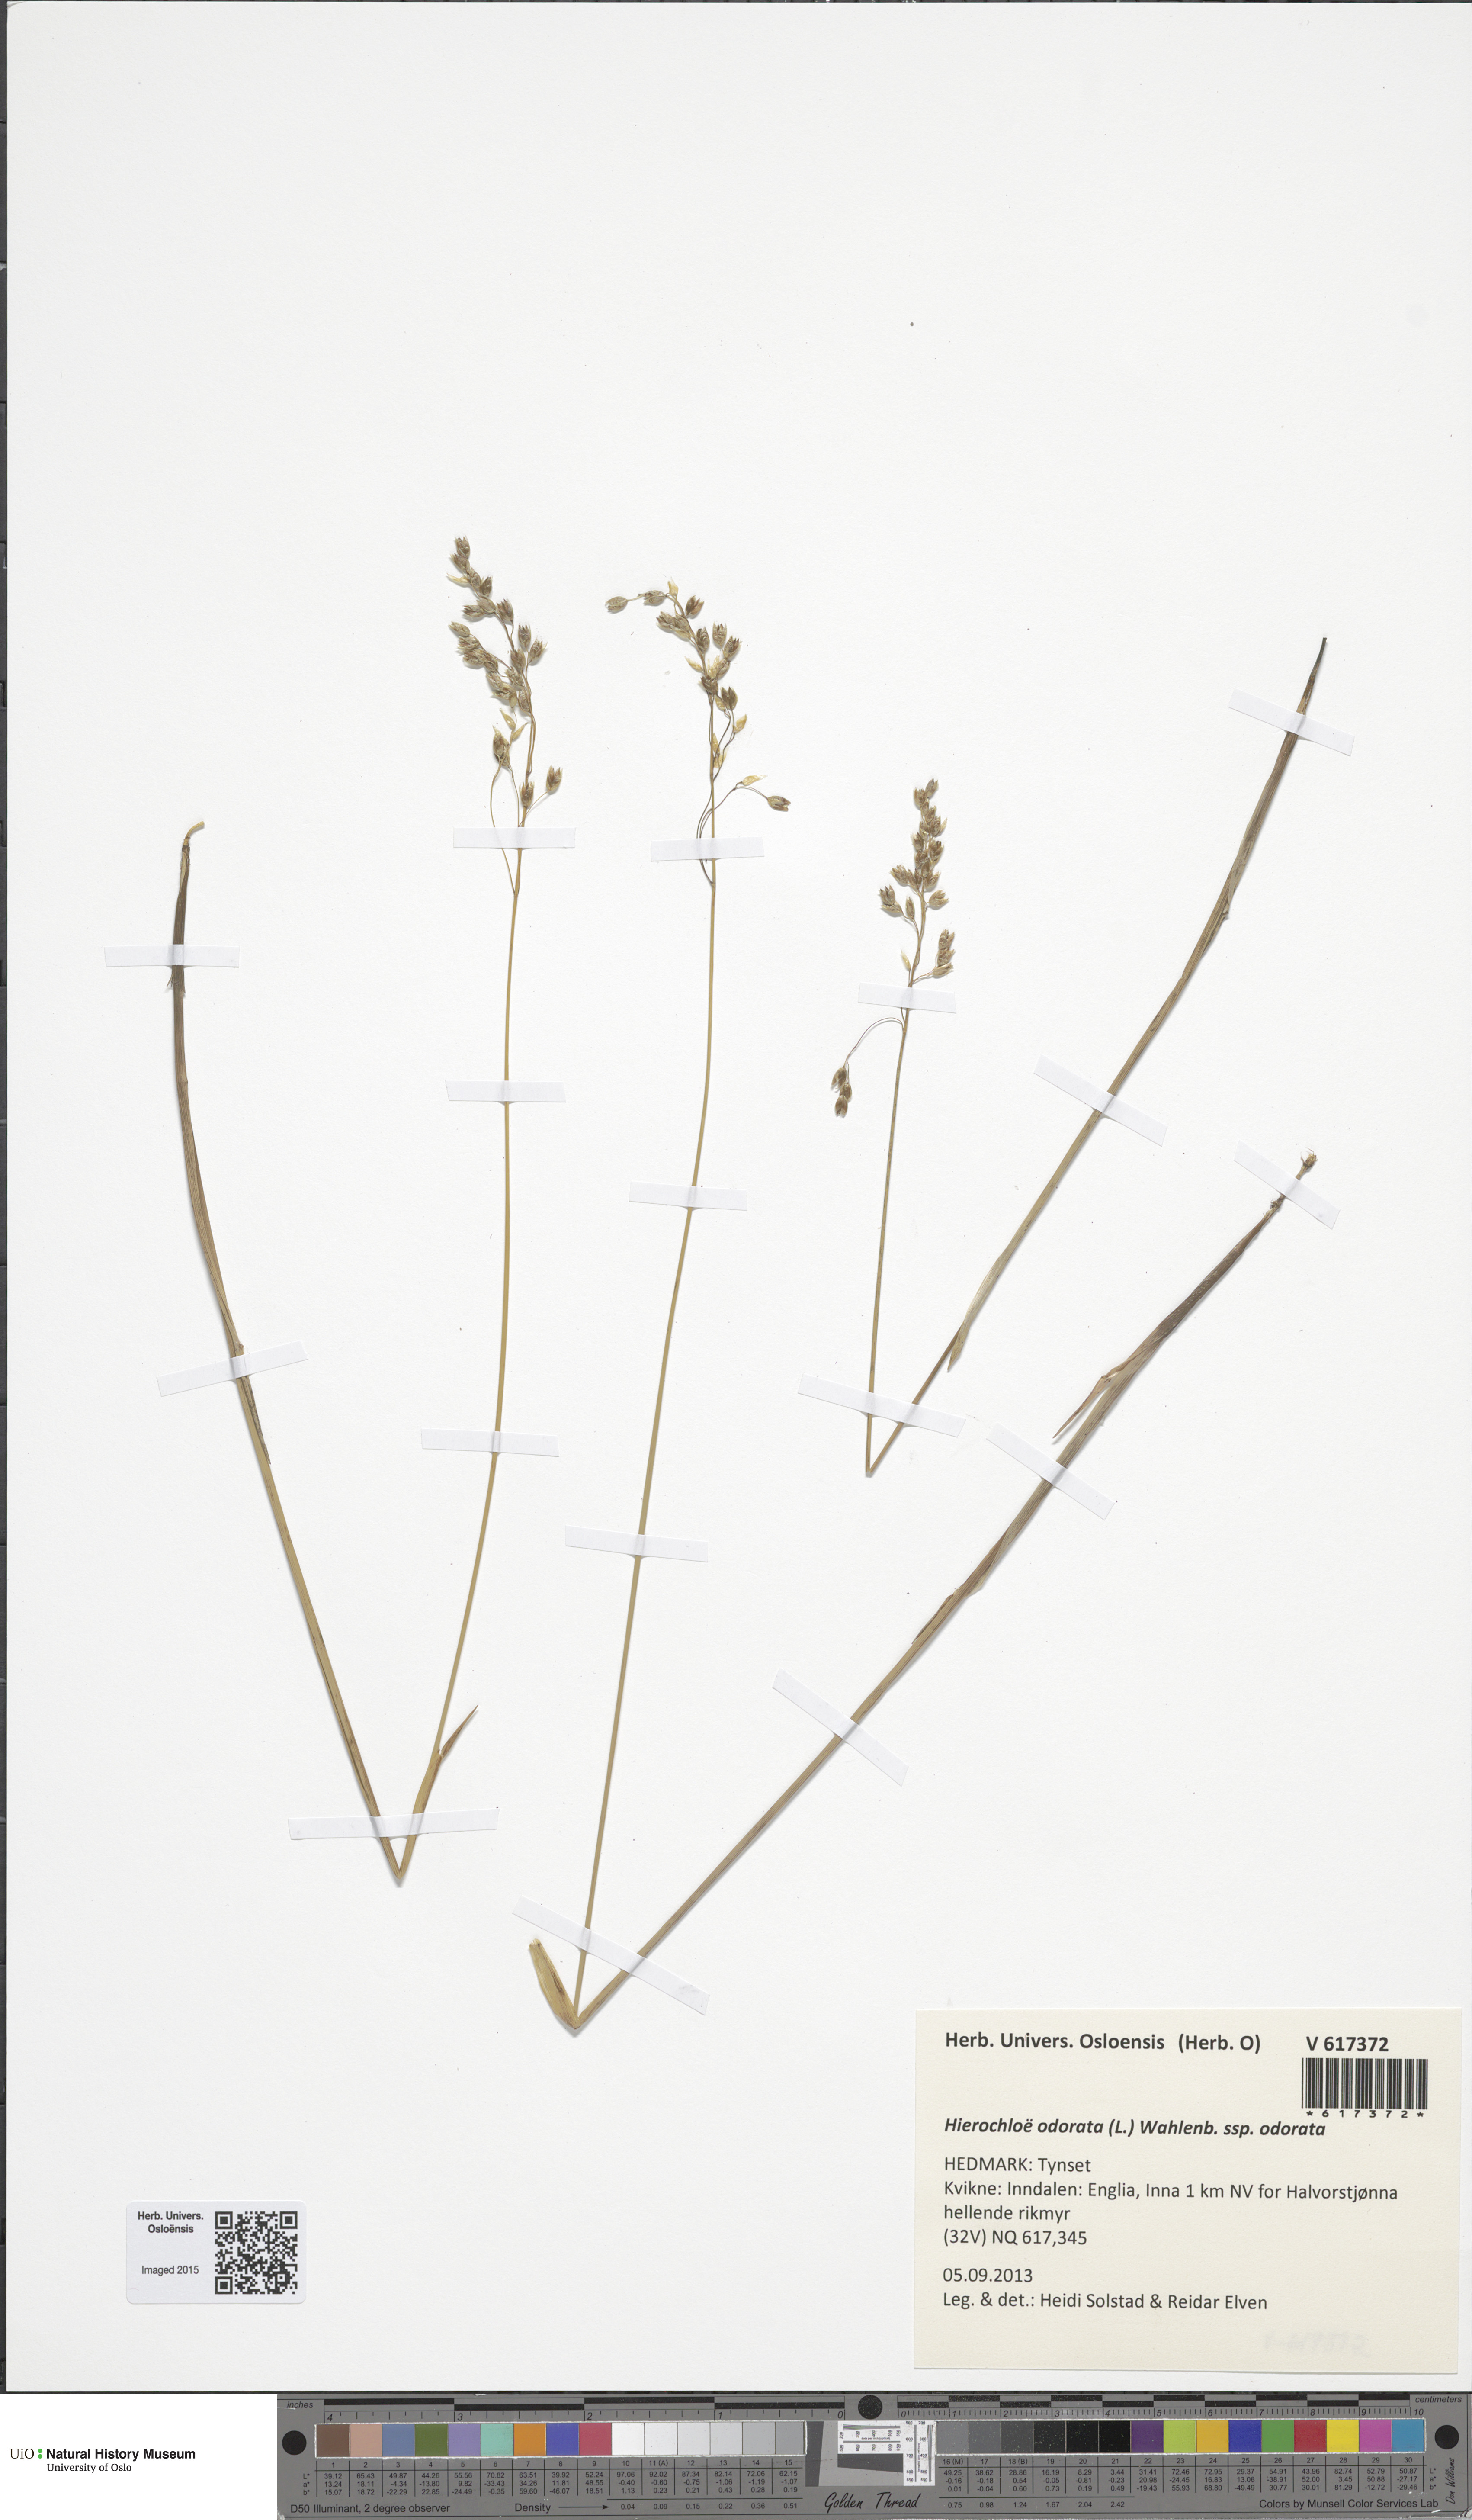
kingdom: Plantae
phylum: Tracheophyta
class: Liliopsida
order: Poales
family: Poaceae
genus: Anthoxanthum
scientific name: Anthoxanthum nitens
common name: Holy grass
